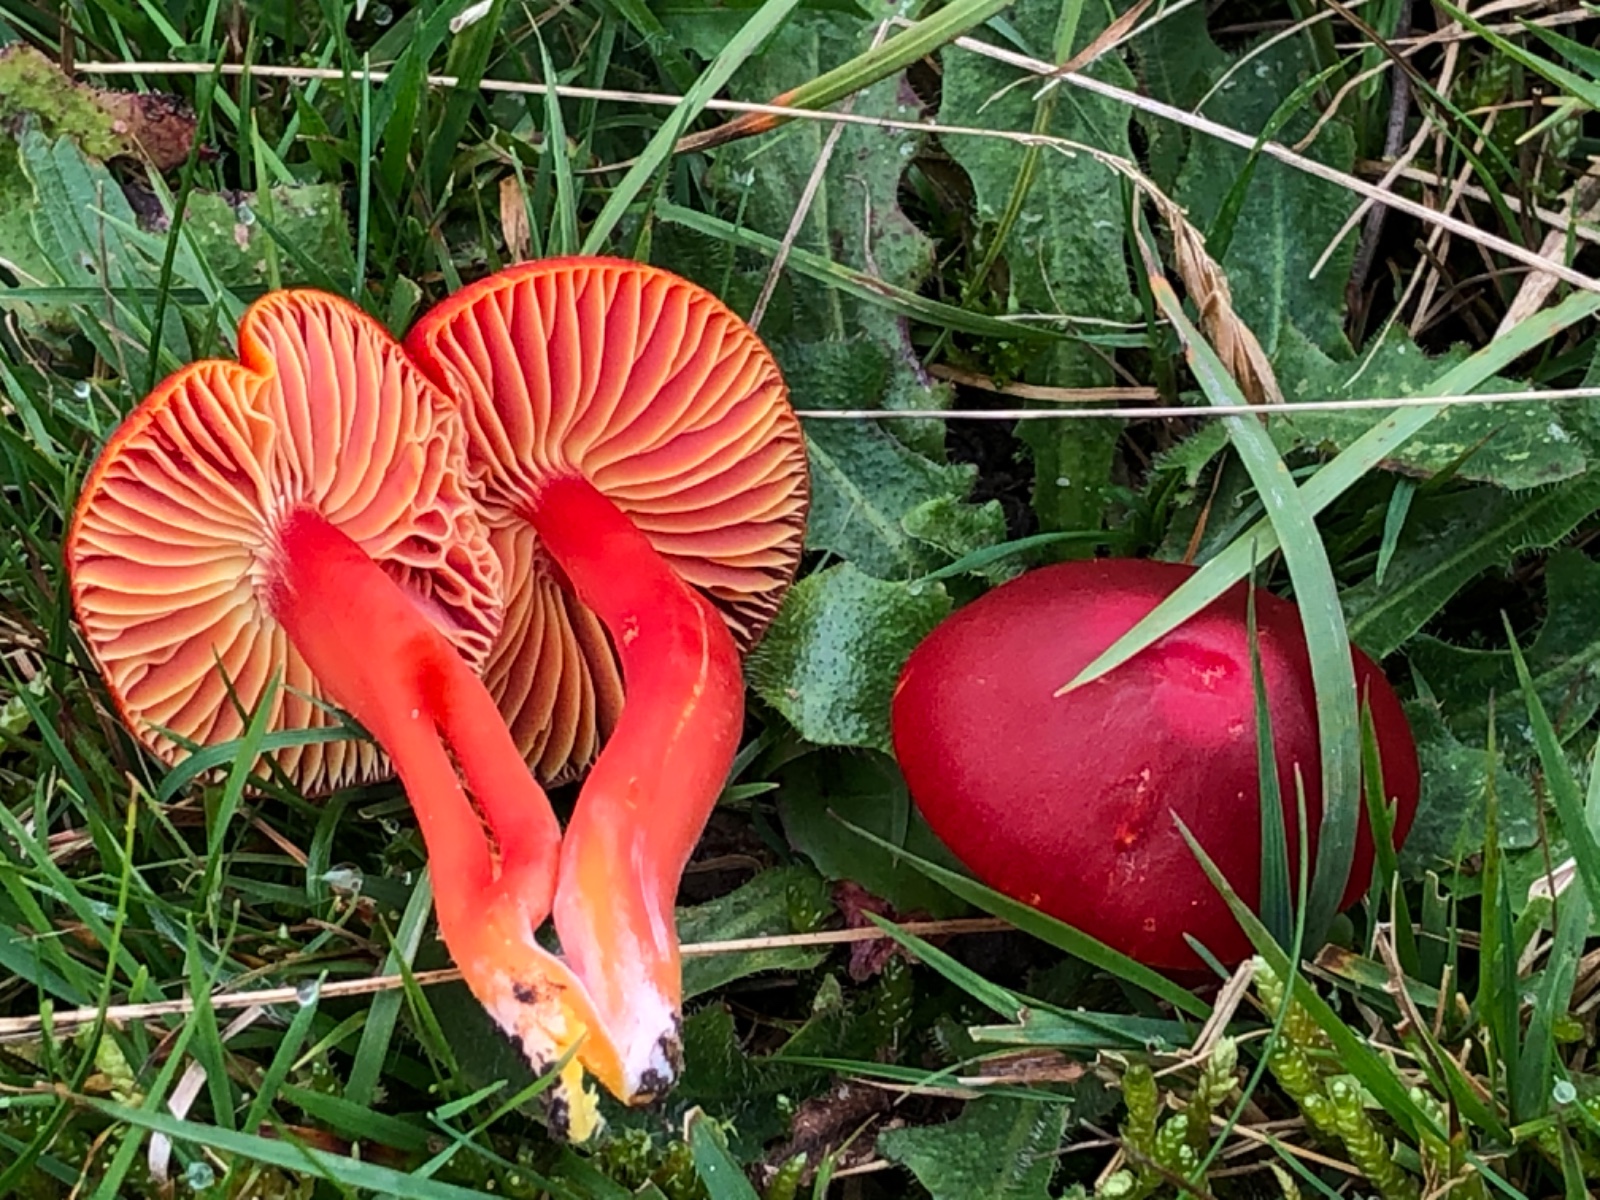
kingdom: Fungi
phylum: Basidiomycota
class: Agaricomycetes
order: Agaricales
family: Hygrophoraceae
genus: Hygrocybe
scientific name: Hygrocybe coccinea
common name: cinnober-vokshat
